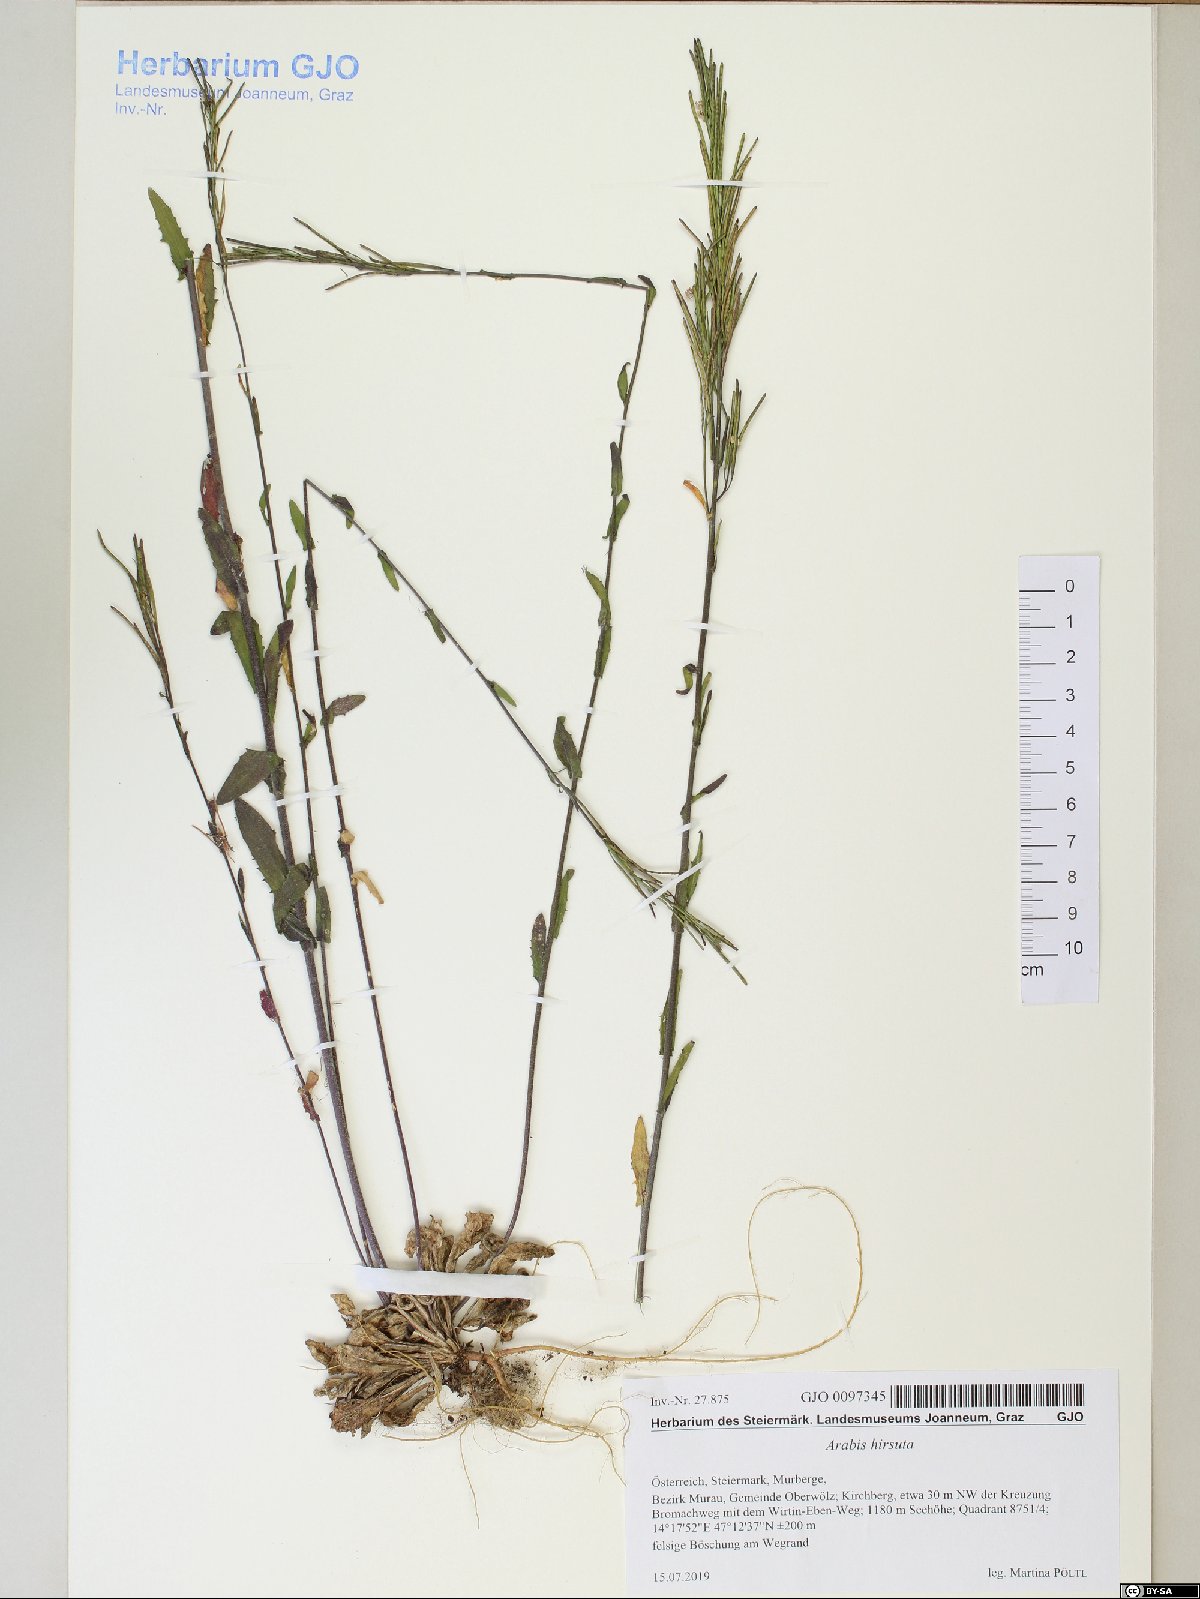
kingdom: Plantae
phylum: Tracheophyta
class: Magnoliopsida
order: Brassicales
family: Brassicaceae
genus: Arabis
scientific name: Arabis hirsuta
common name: Hairy rock-cress
